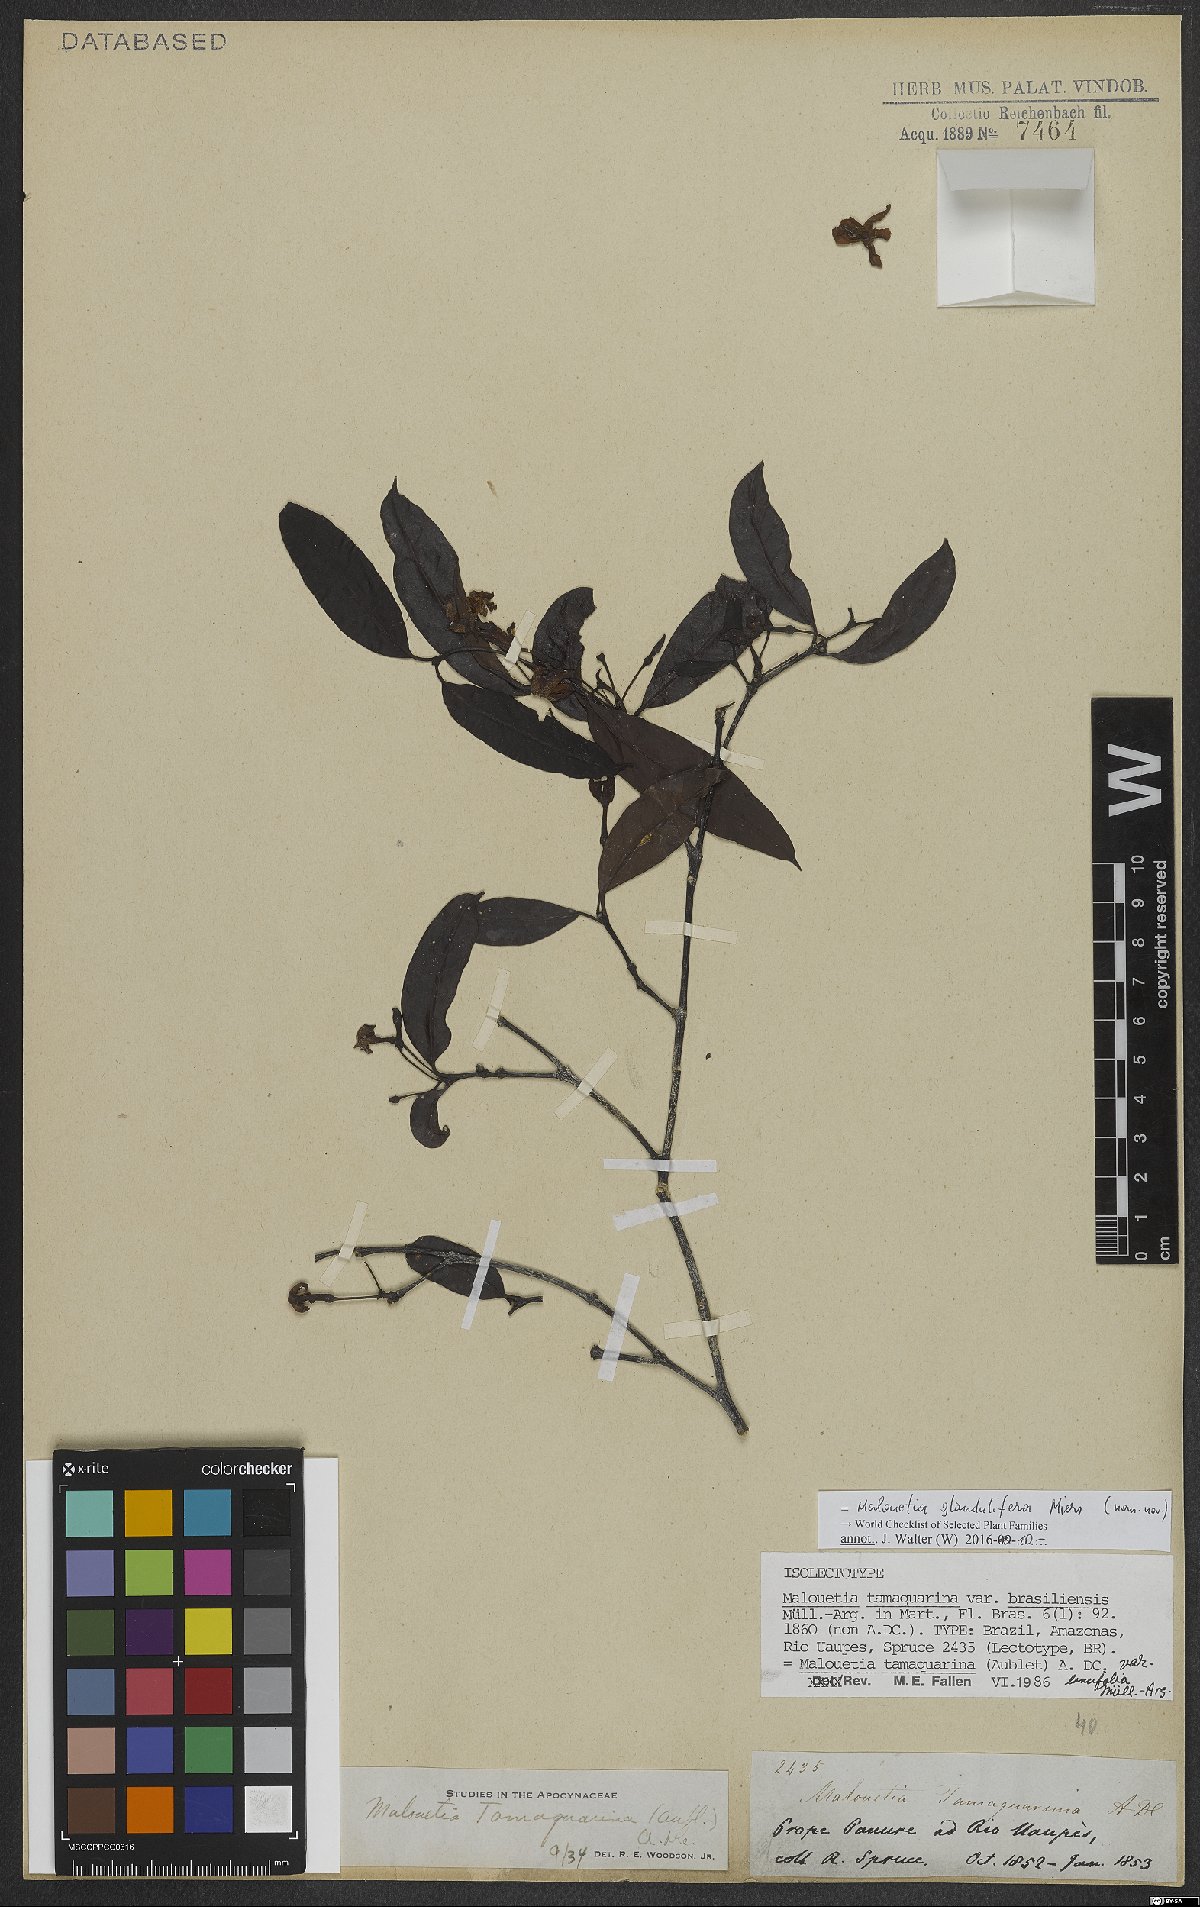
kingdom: Plantae
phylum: Tracheophyta
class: Magnoliopsida
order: Gentianales
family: Apocynaceae
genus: Malouetia
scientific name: Malouetia glandulifera
